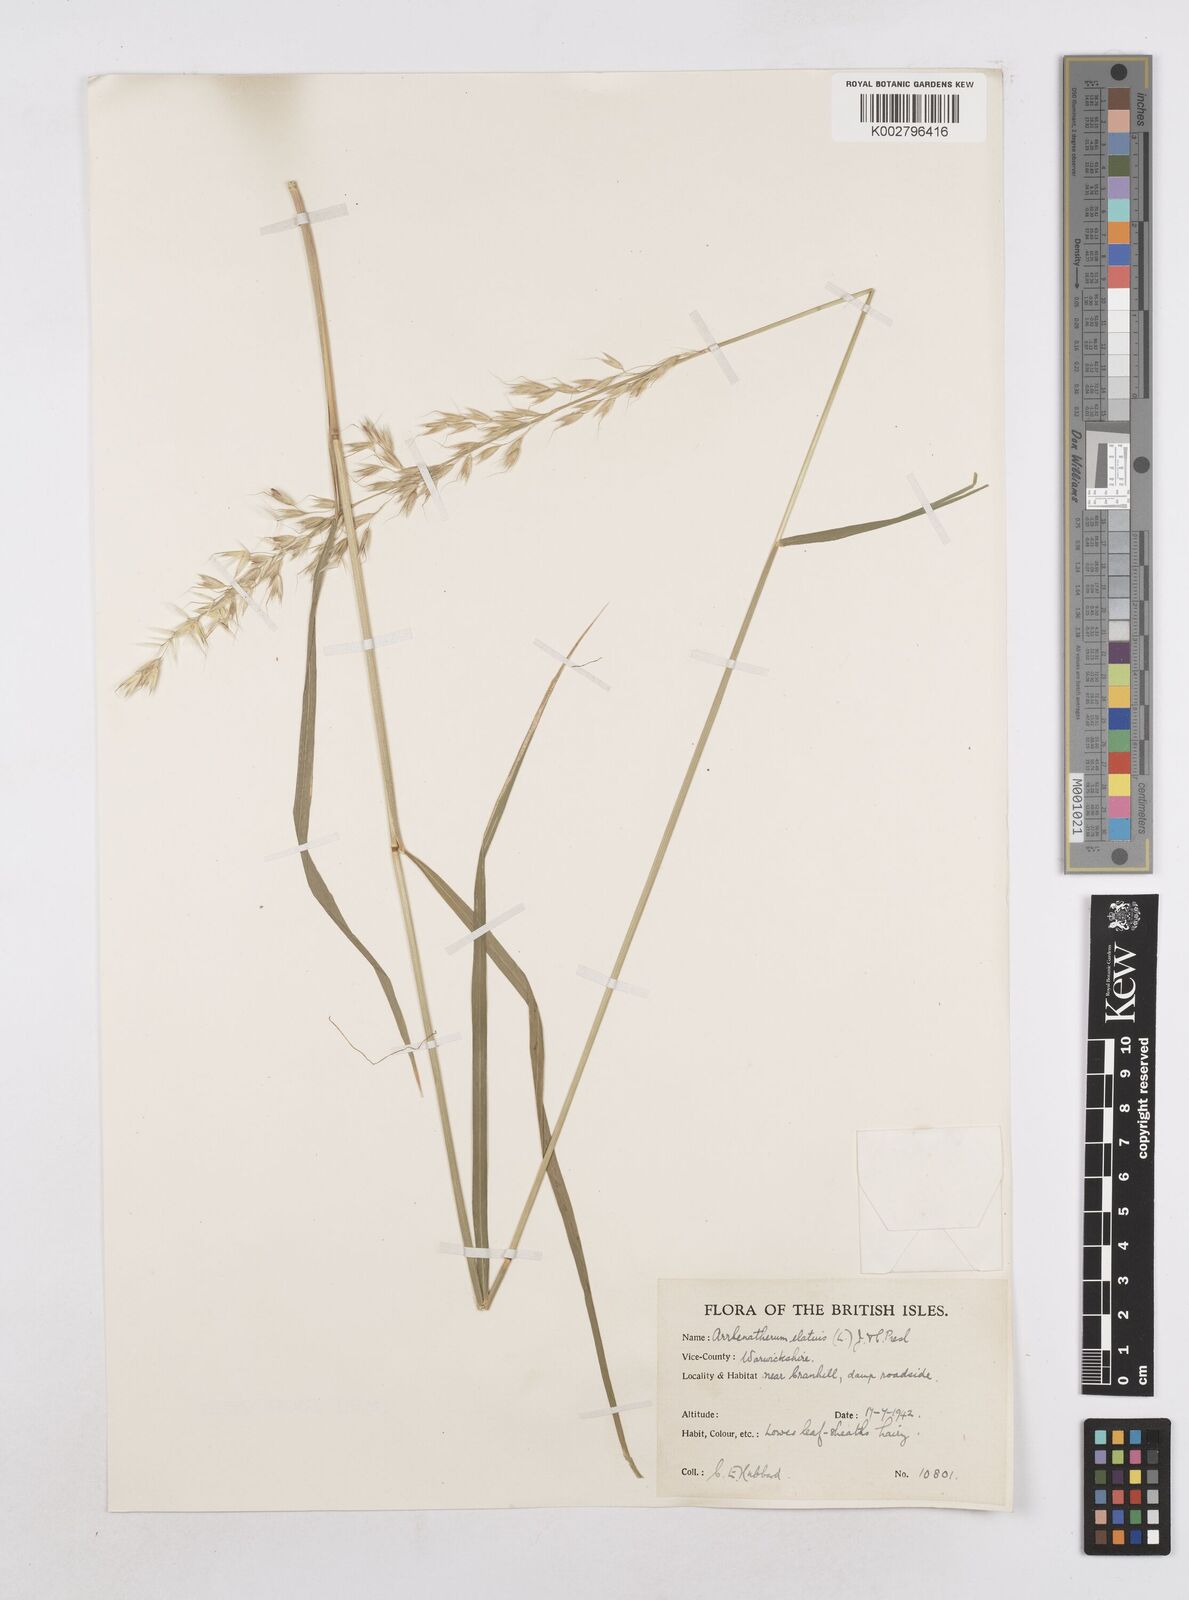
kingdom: Plantae
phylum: Tracheophyta
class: Liliopsida
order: Poales
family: Poaceae
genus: Arrhenatherum
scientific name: Arrhenatherum elatius
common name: Tall oatgrass
